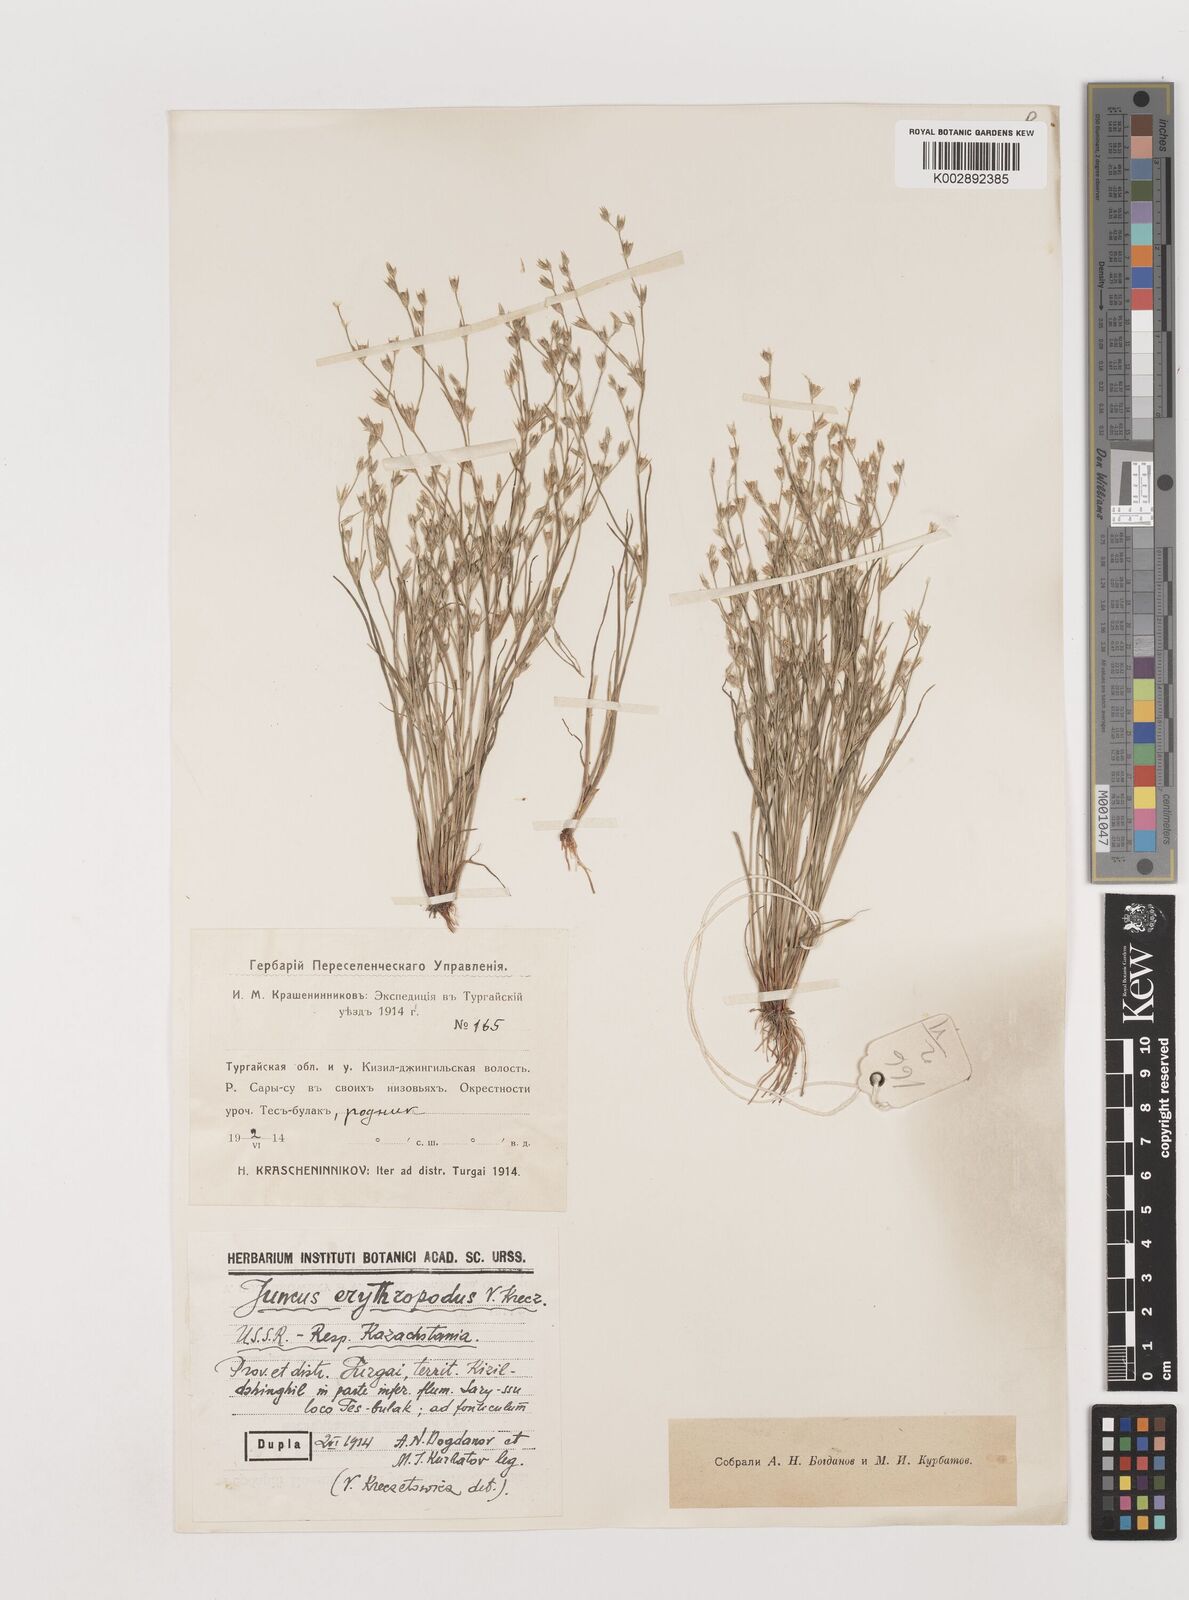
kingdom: Plantae
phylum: Tracheophyta
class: Liliopsida
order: Poales
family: Juncaceae
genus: Juncus
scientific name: Juncus bufonius
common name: Toad rush
